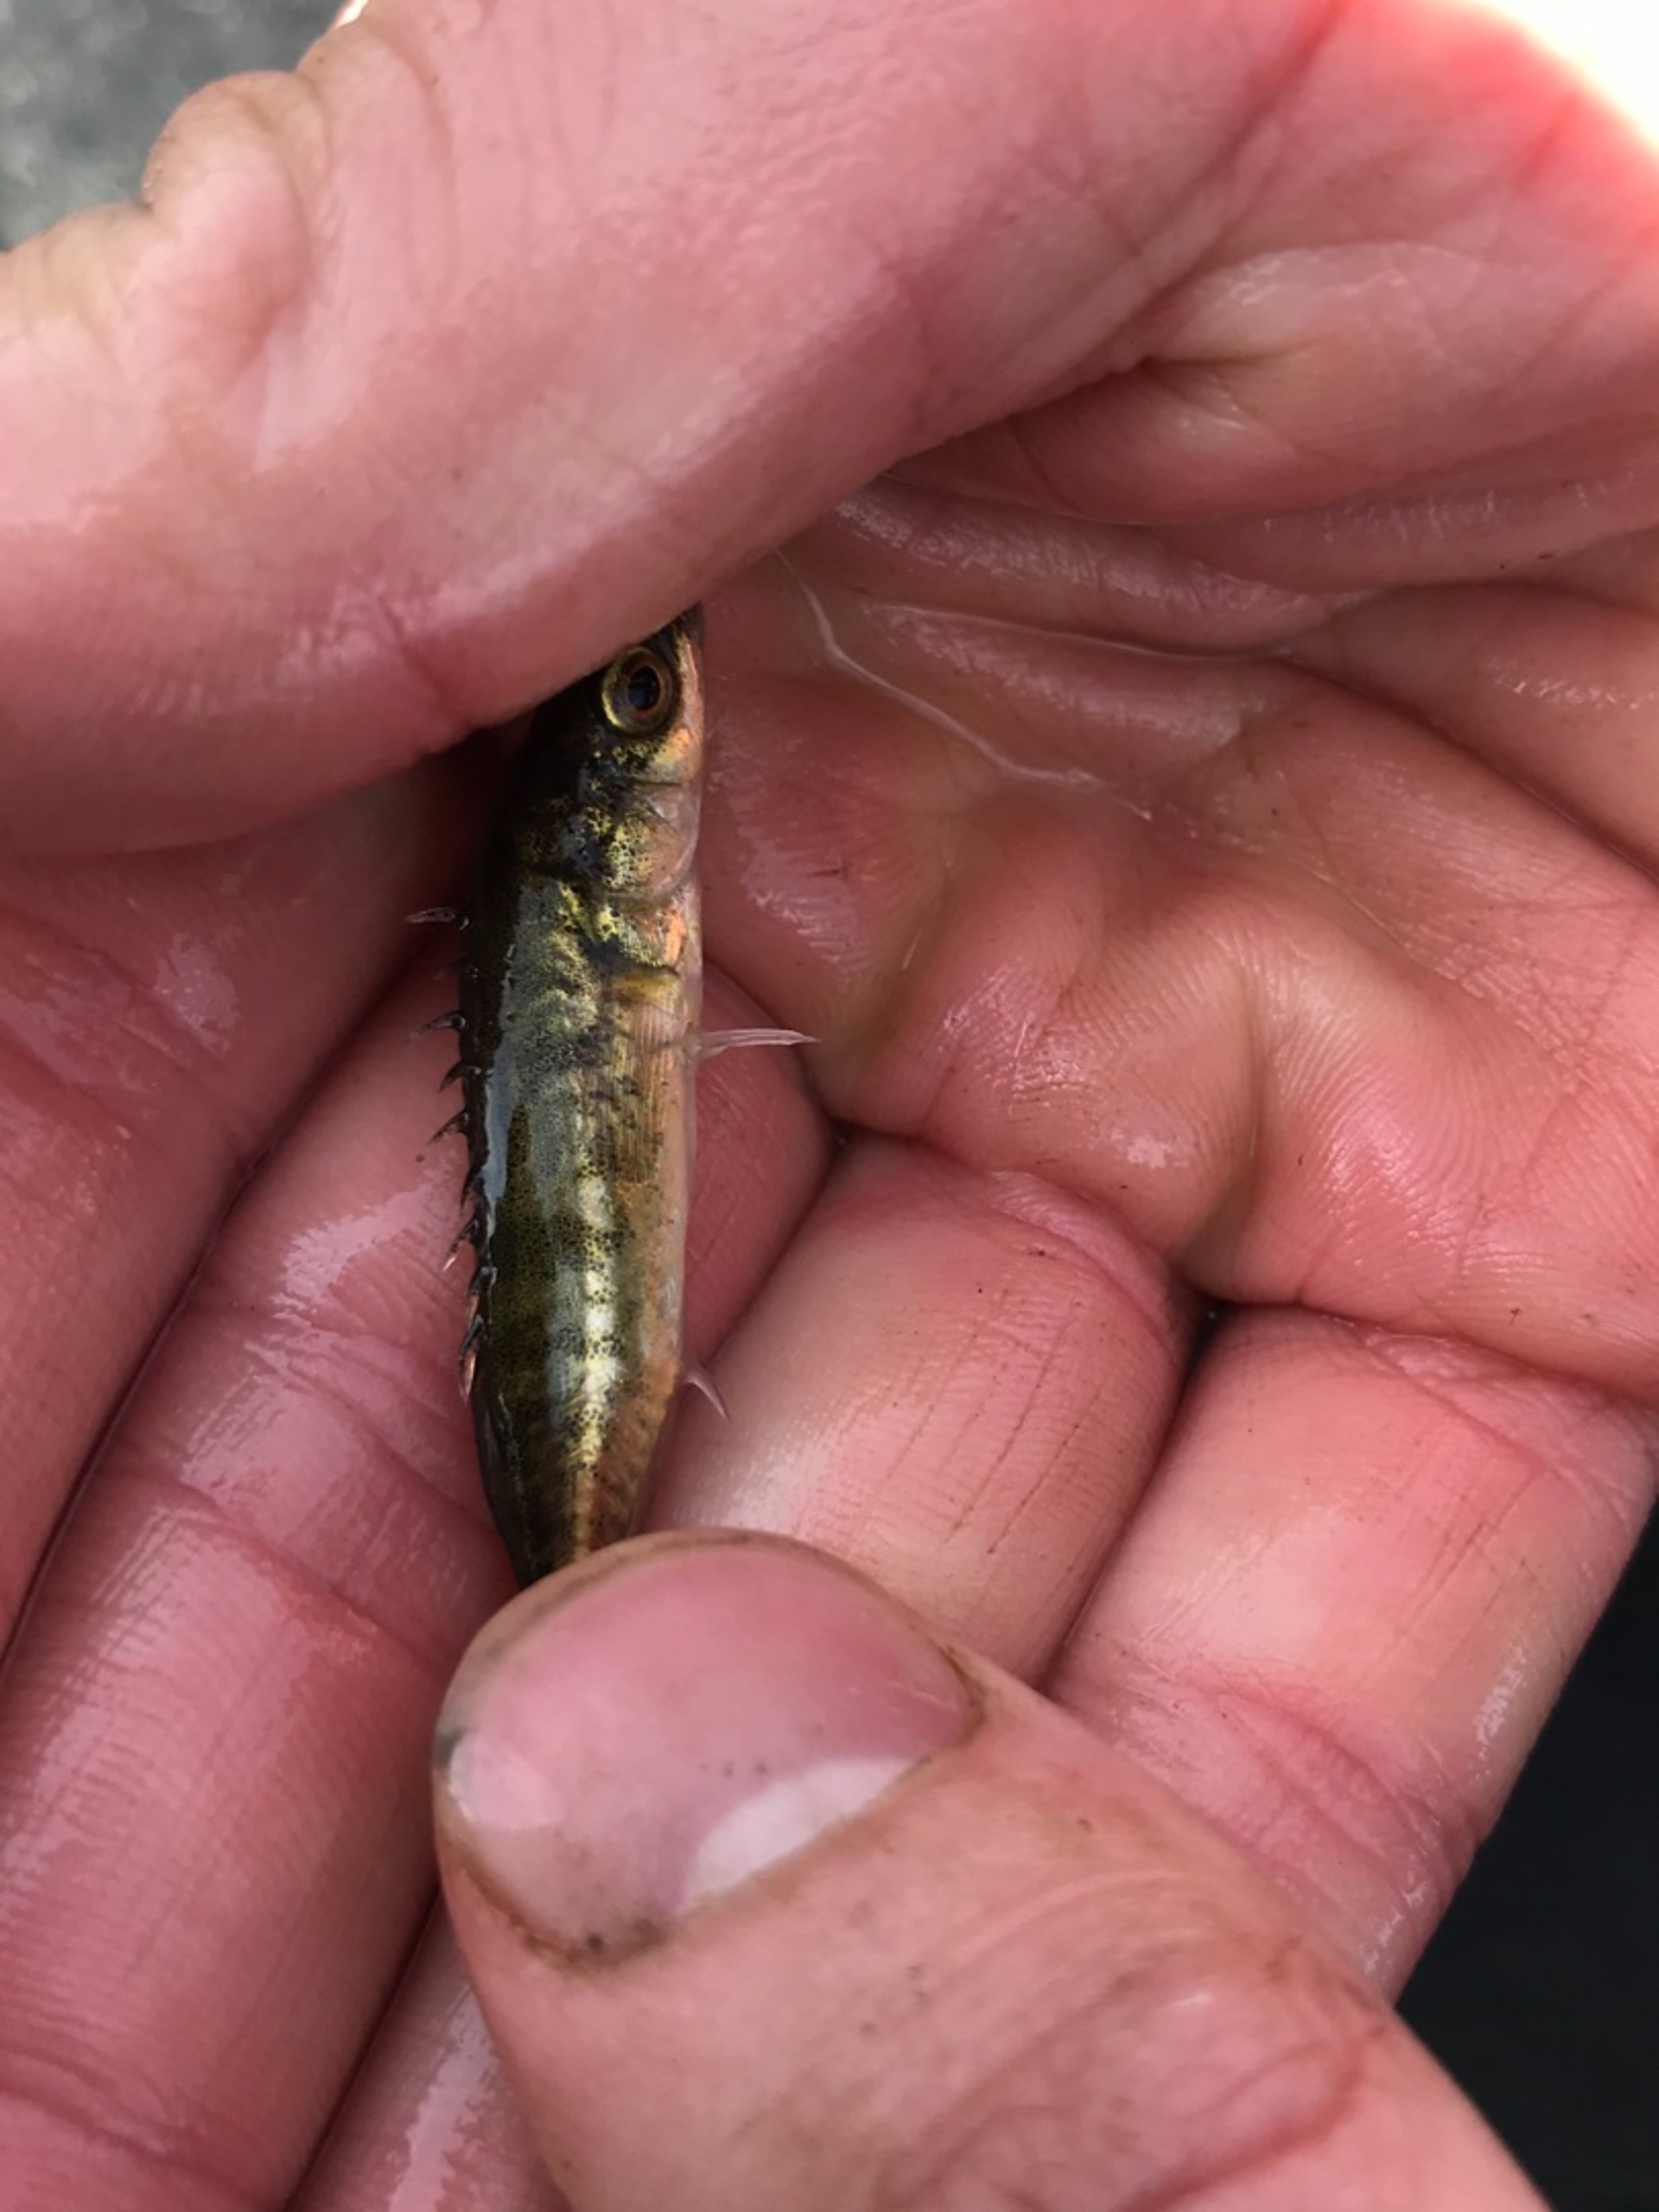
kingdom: Animalia
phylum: Chordata
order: Gasterosteiformes
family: Gasterosteidae
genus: Pungitius
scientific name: Pungitius pungitius
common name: Nipigget hundestejle
